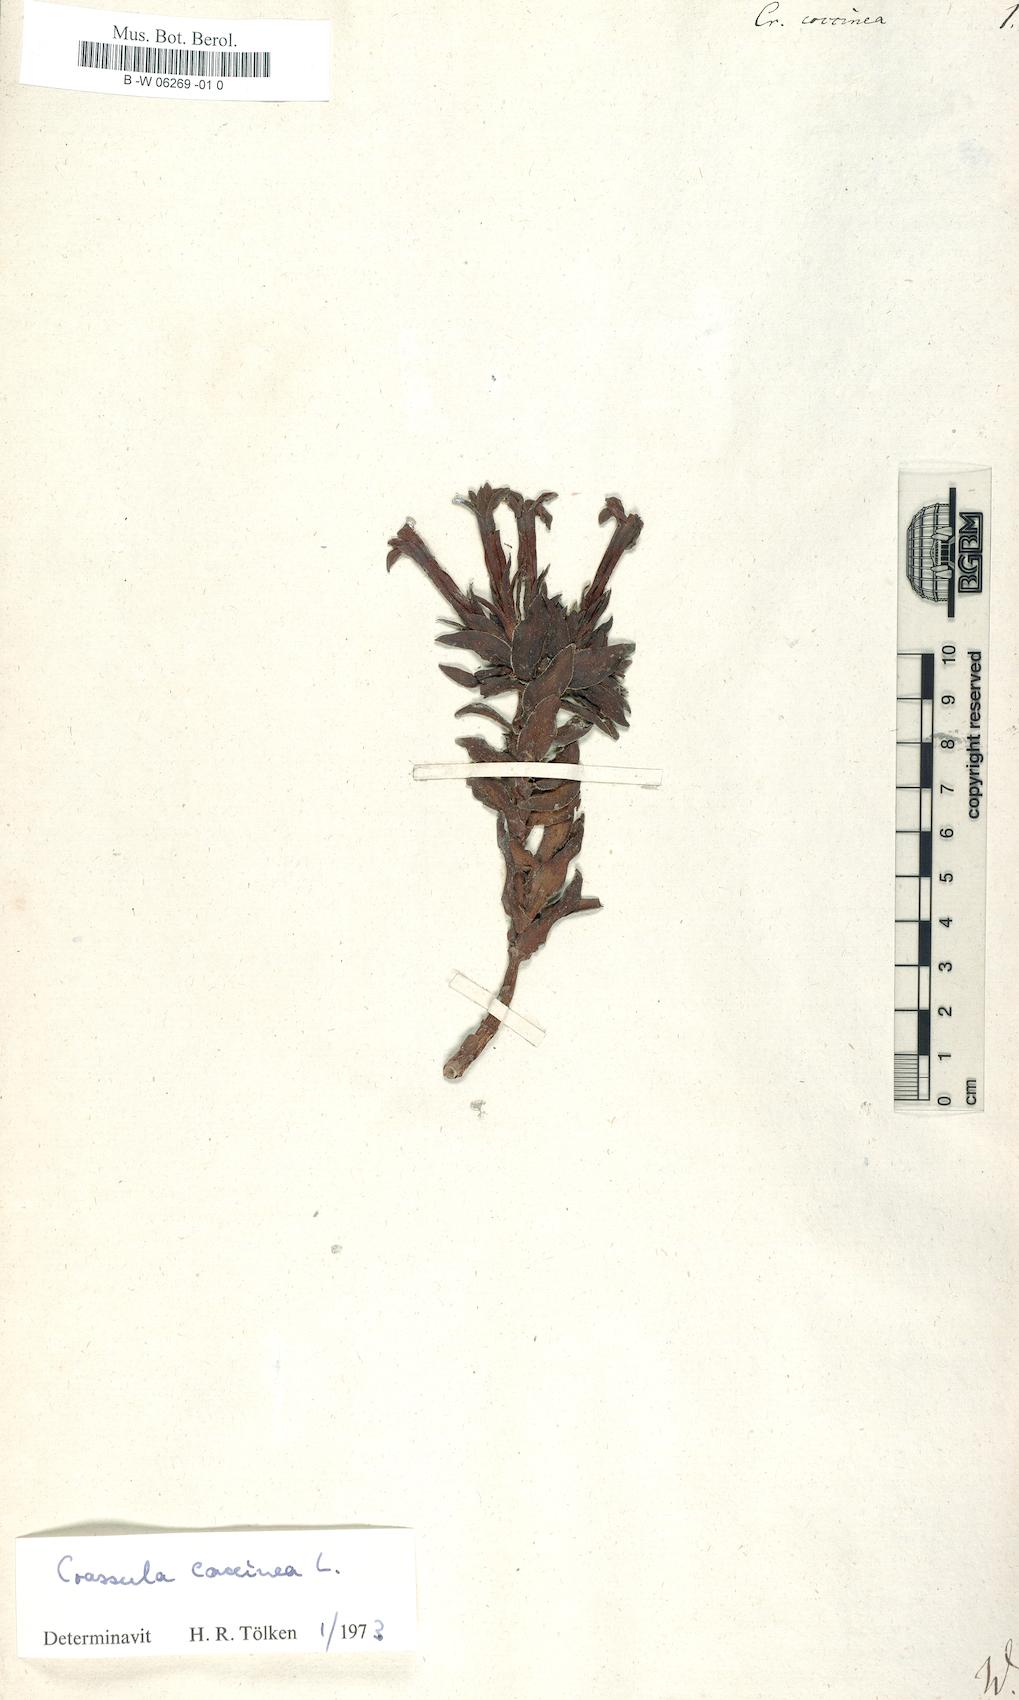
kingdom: Plantae
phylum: Tracheophyta
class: Magnoliopsida
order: Saxifragales
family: Crassulaceae
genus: Crassula
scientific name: Crassula coccinea
